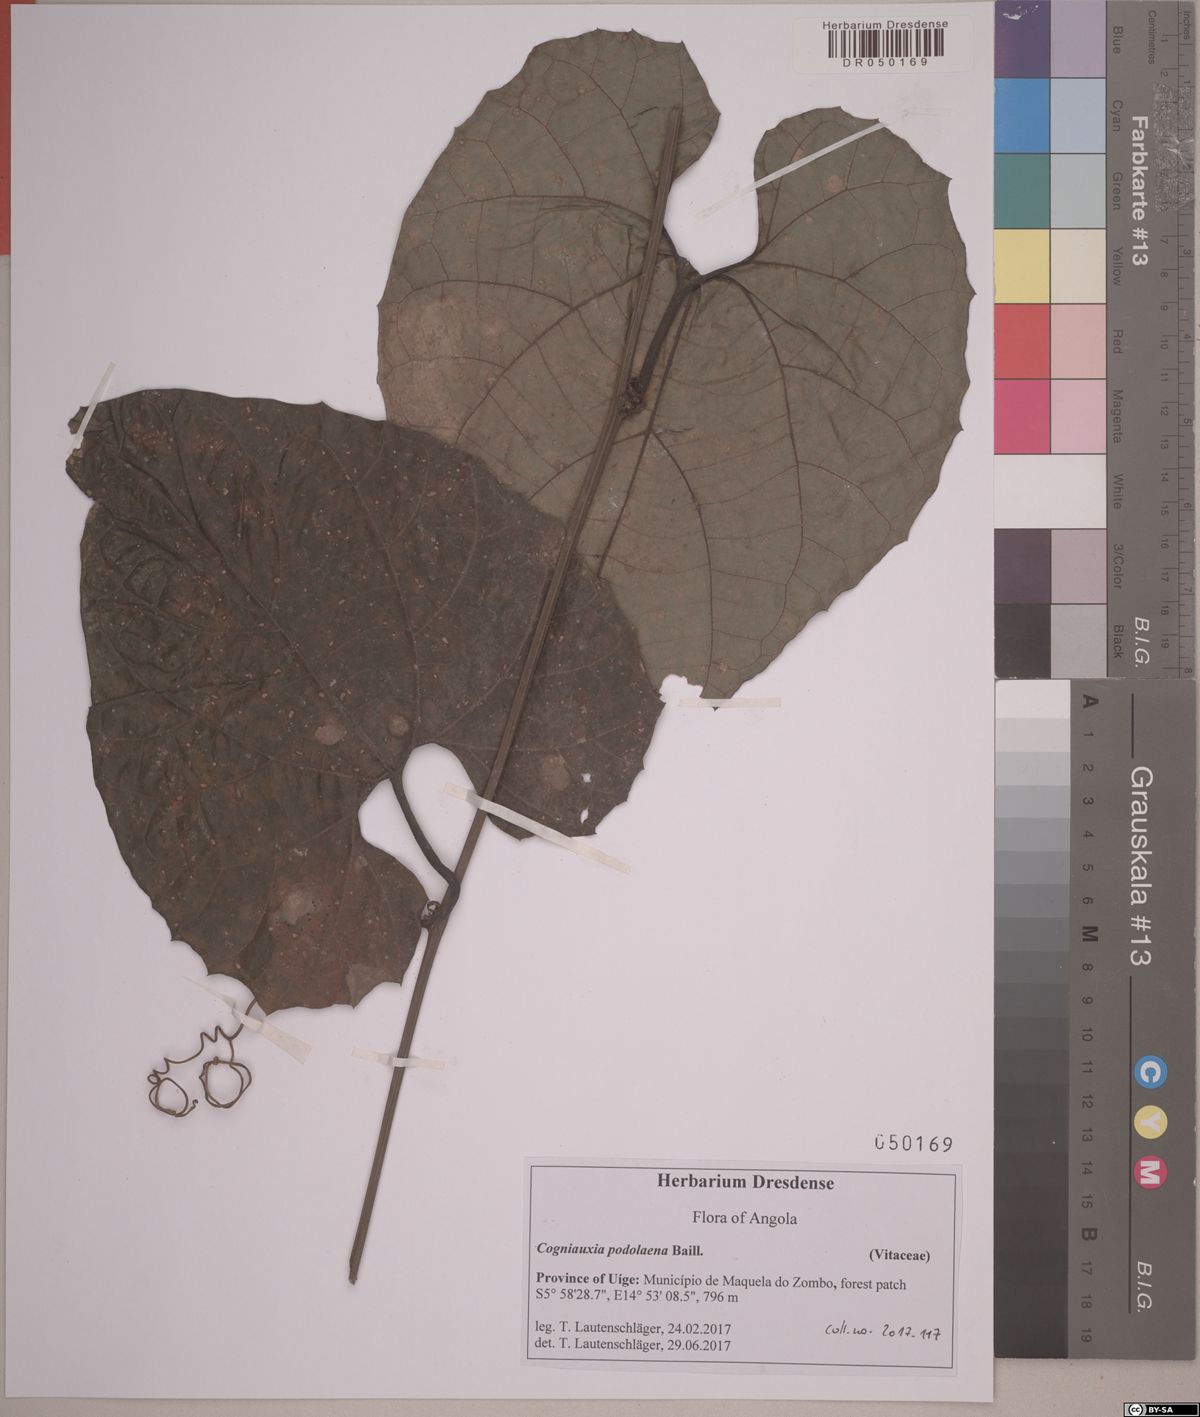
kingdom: Plantae
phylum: Tracheophyta
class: Magnoliopsida
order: Cucurbitales
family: Cucurbitaceae
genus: Cogniauxia
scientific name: Cogniauxia podolaena
